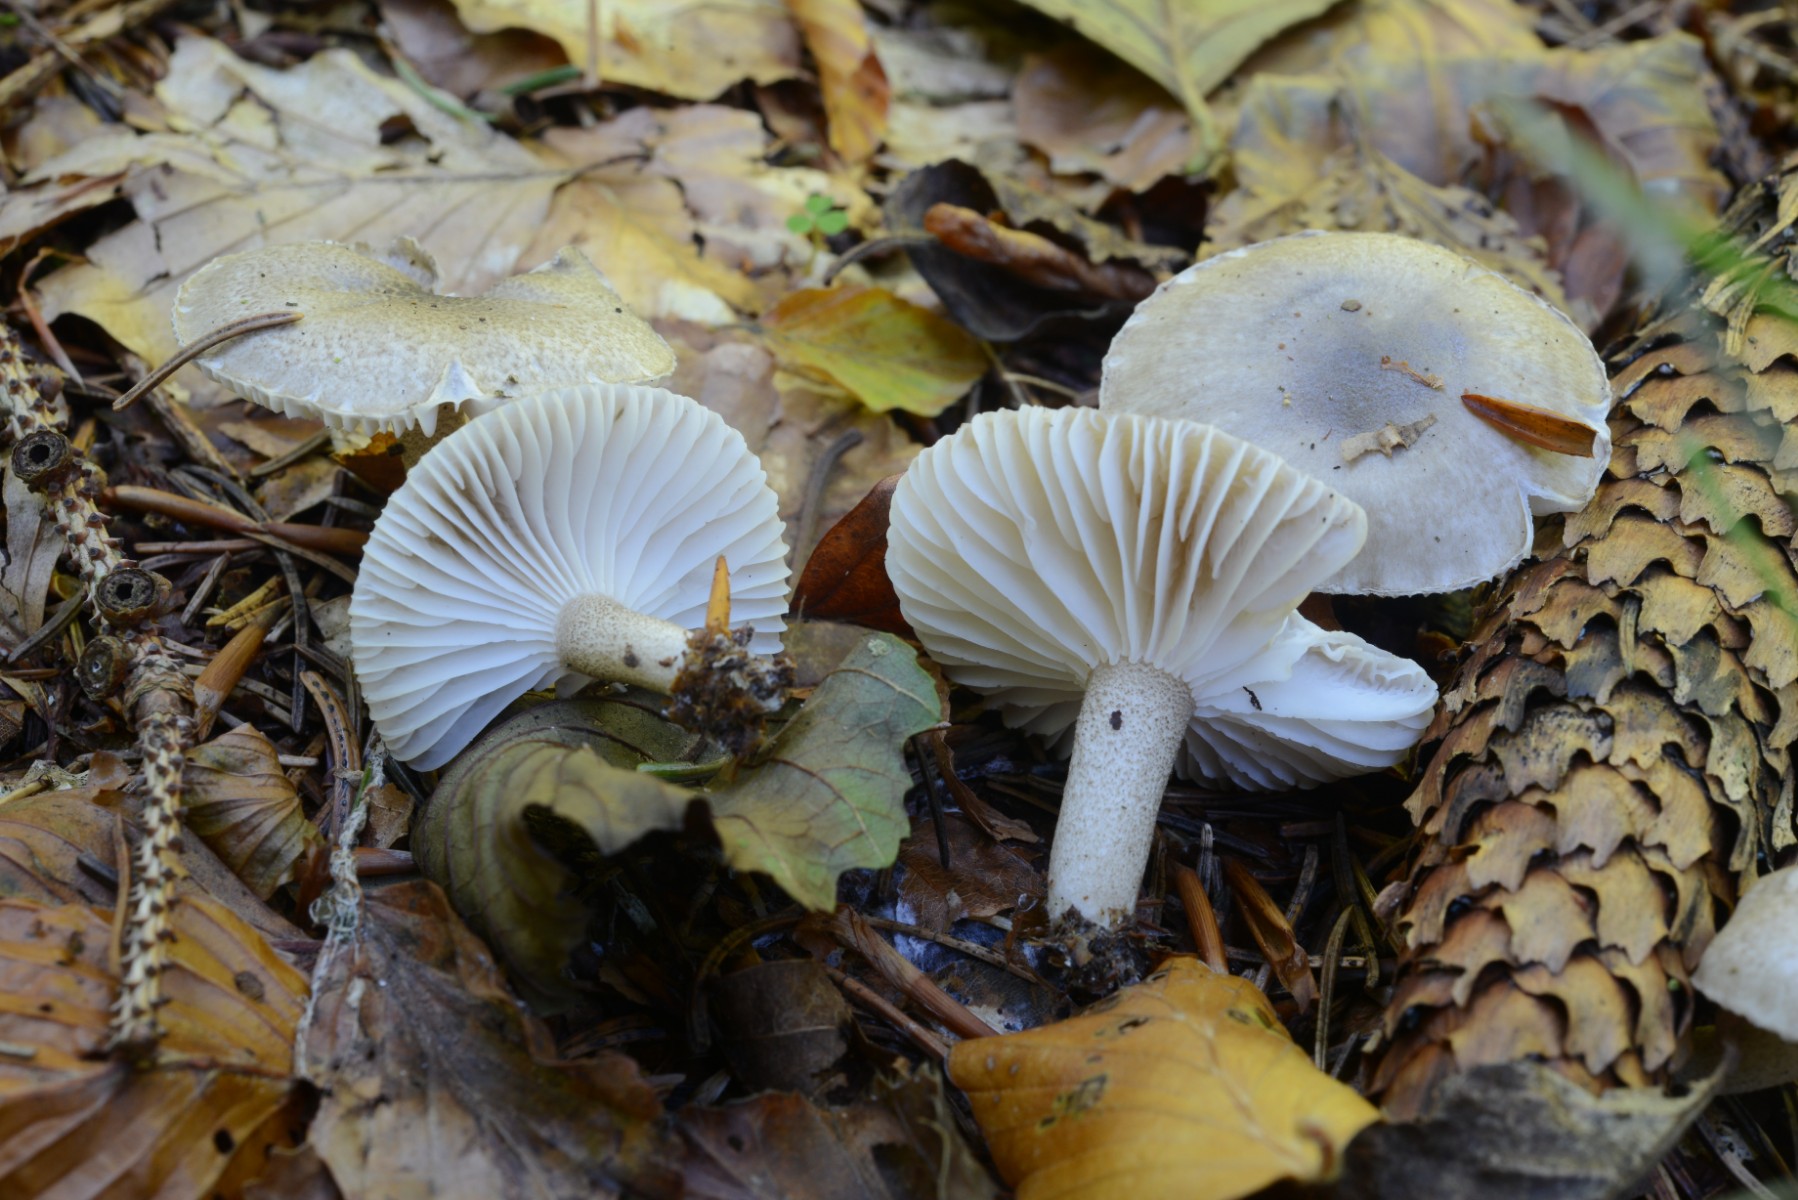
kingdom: Fungi
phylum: Basidiomycota
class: Agaricomycetes
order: Agaricales
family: Hygrophoraceae
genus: Hygrophorus
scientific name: Hygrophorus pustulatus
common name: mørkprikket sneglehat
